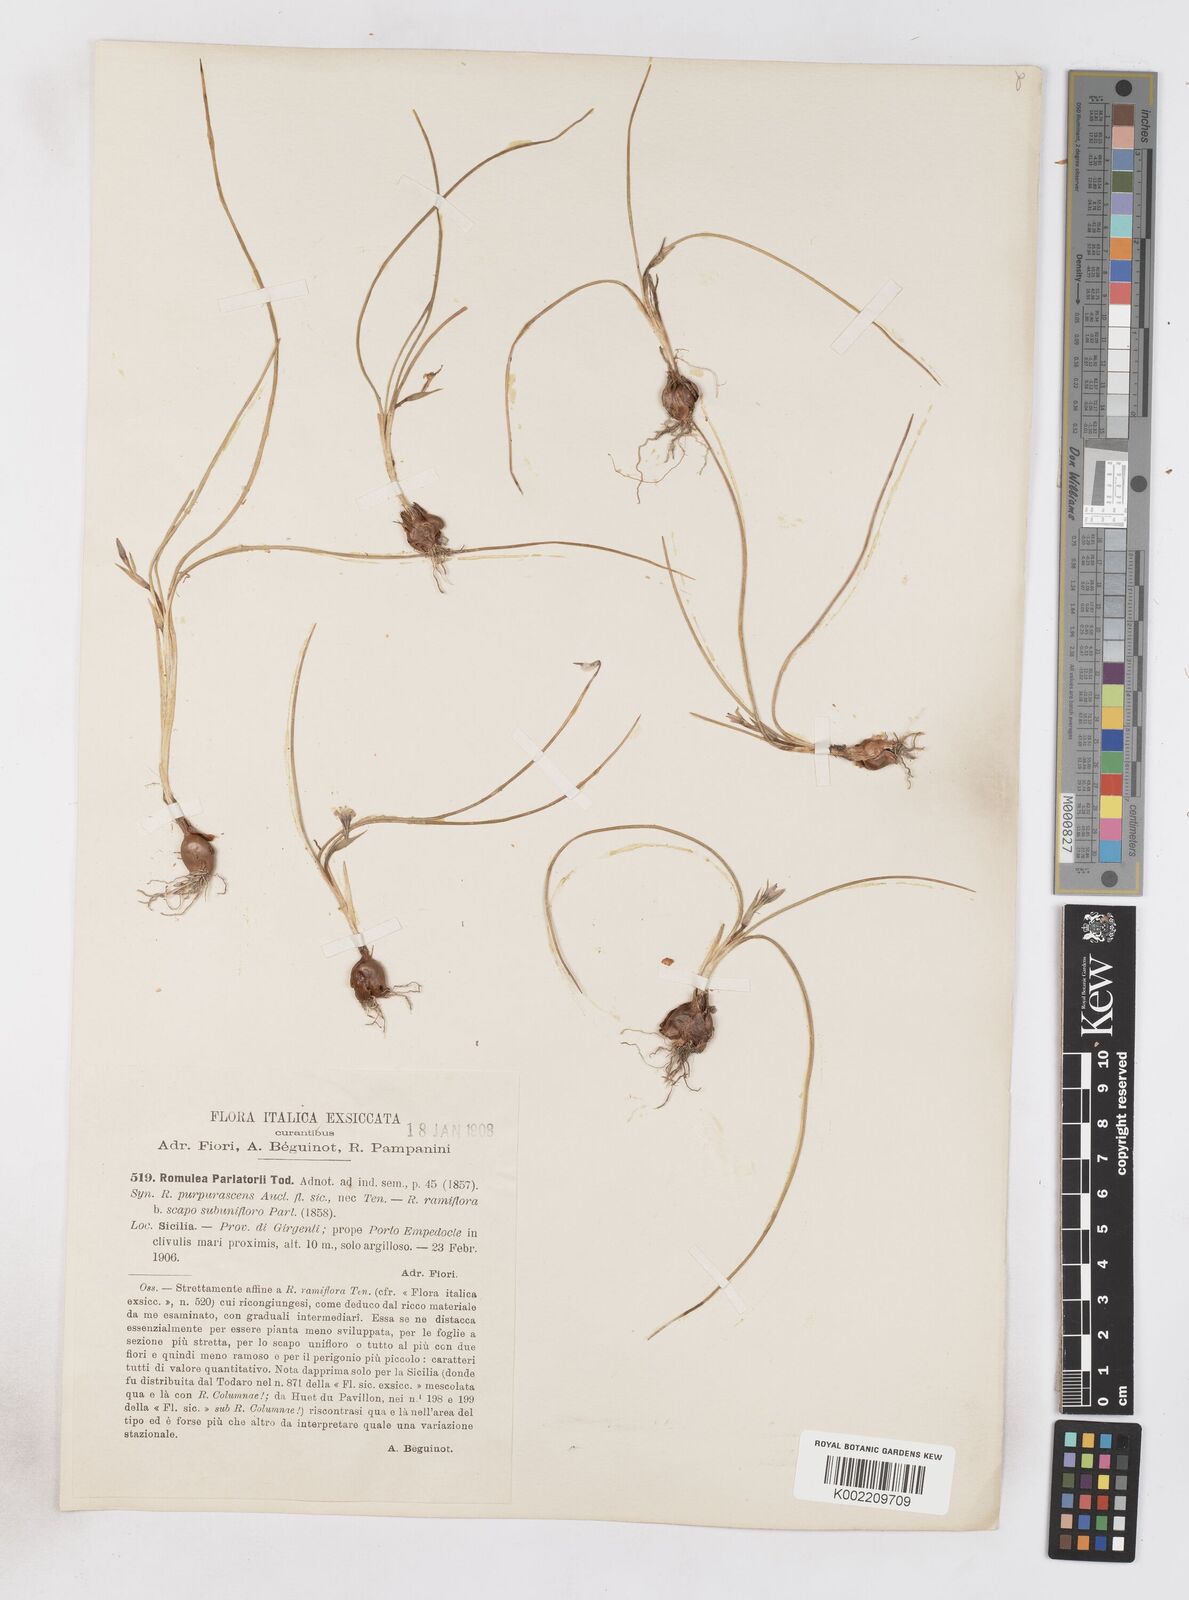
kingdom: Plantae
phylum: Tracheophyta
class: Liliopsida
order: Asparagales
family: Iridaceae
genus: Romulea
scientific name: Romulea ramiflora
